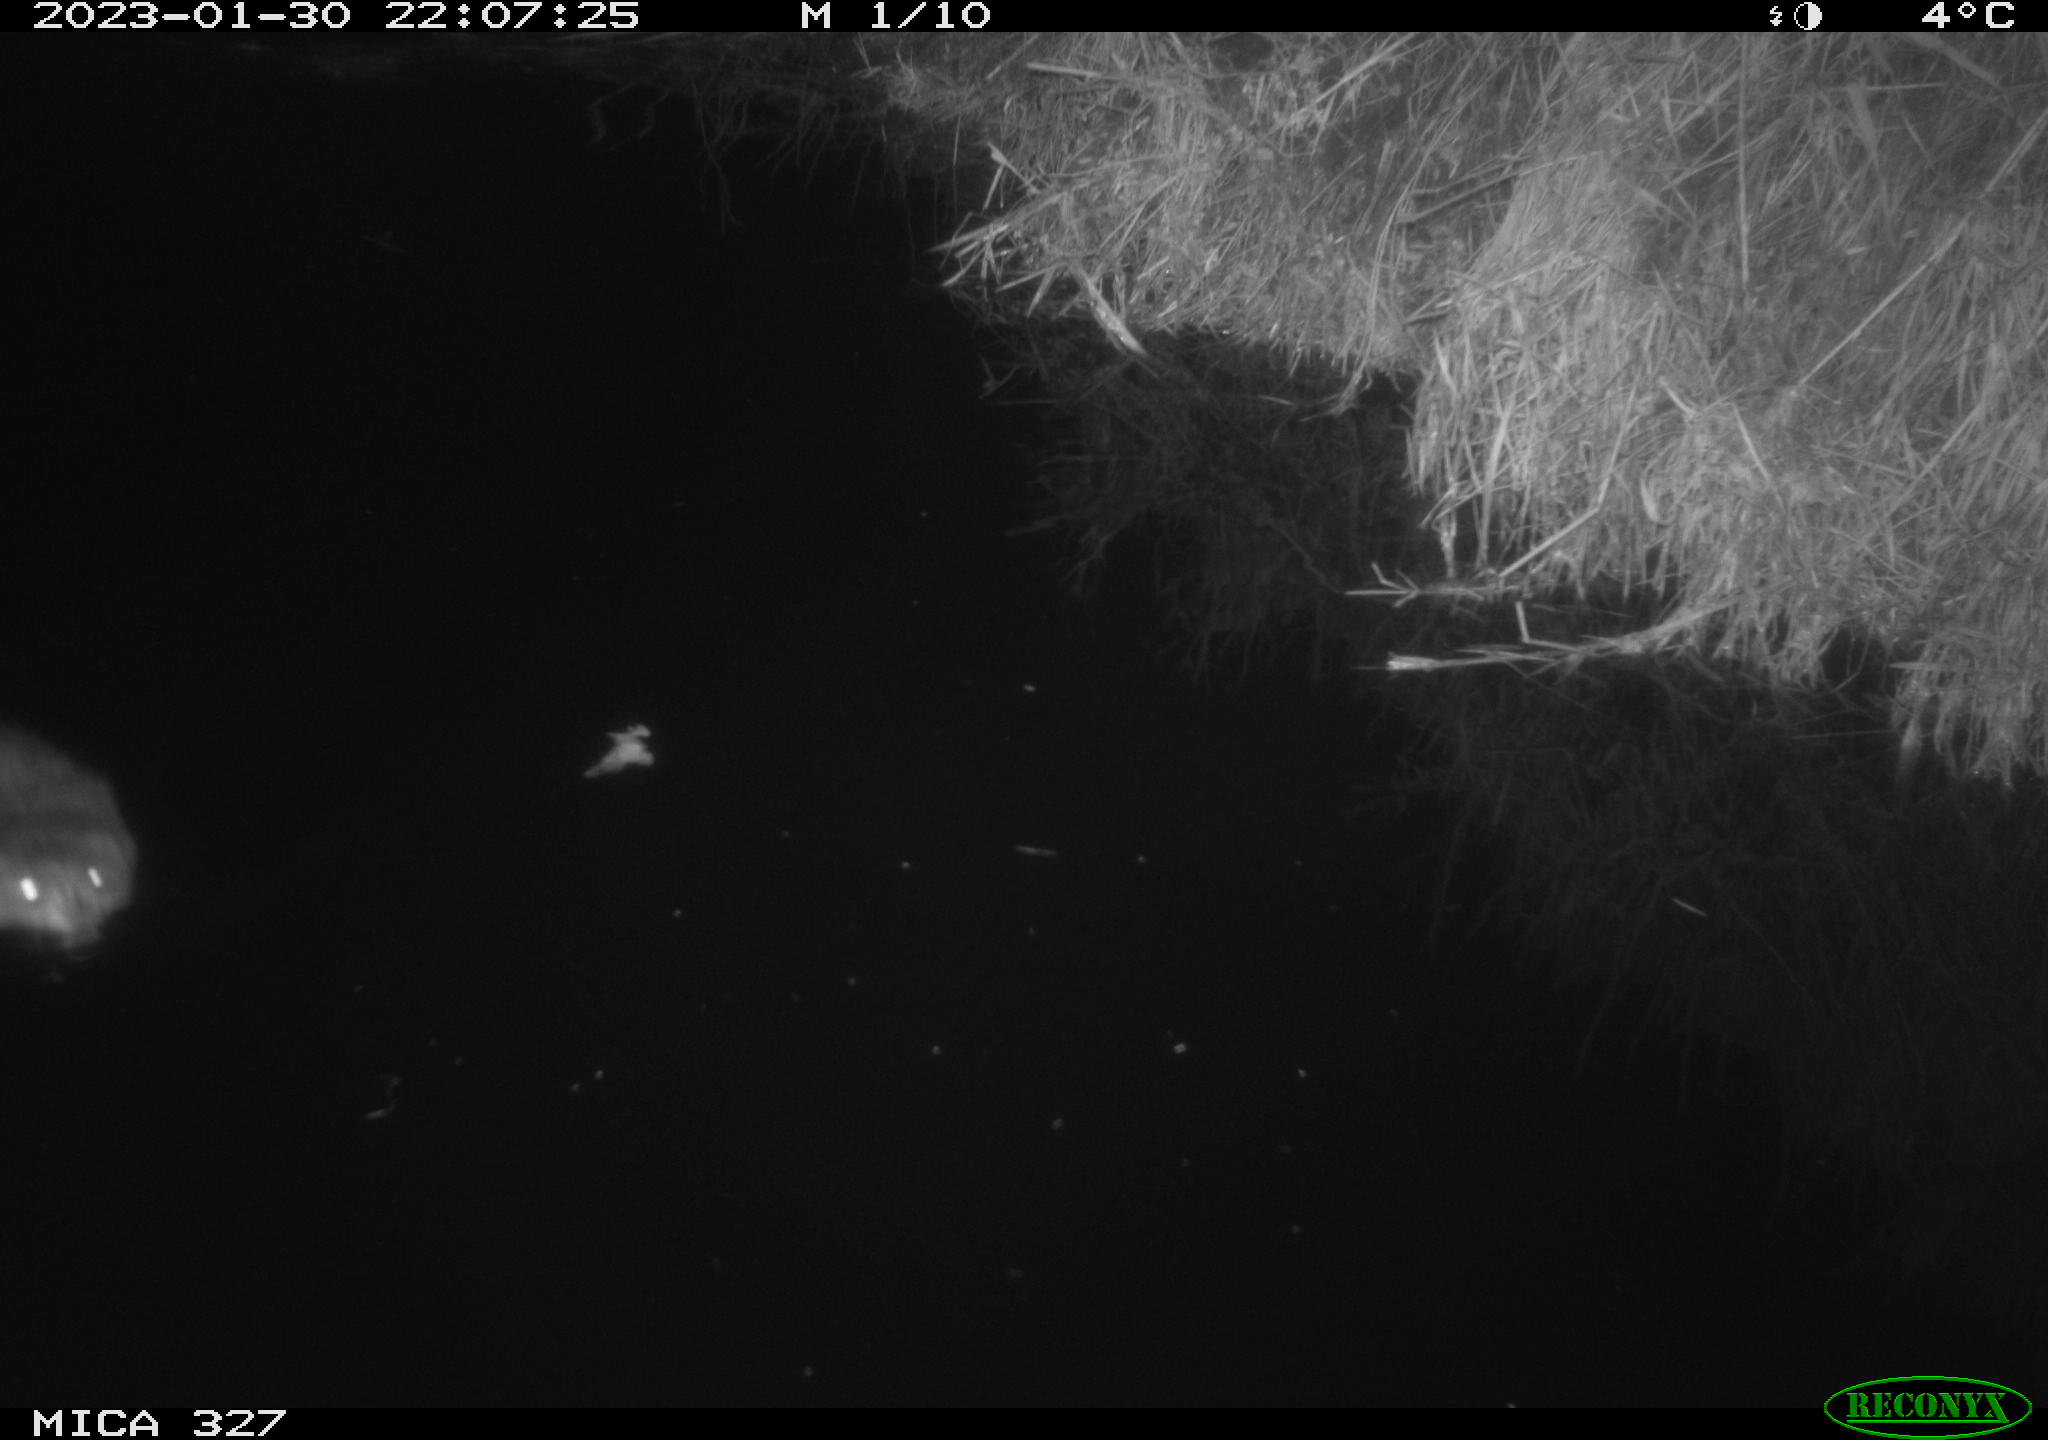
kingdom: Animalia
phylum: Chordata
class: Mammalia
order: Rodentia
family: Cricetidae
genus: Ondatra
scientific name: Ondatra zibethicus
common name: Muskrat
